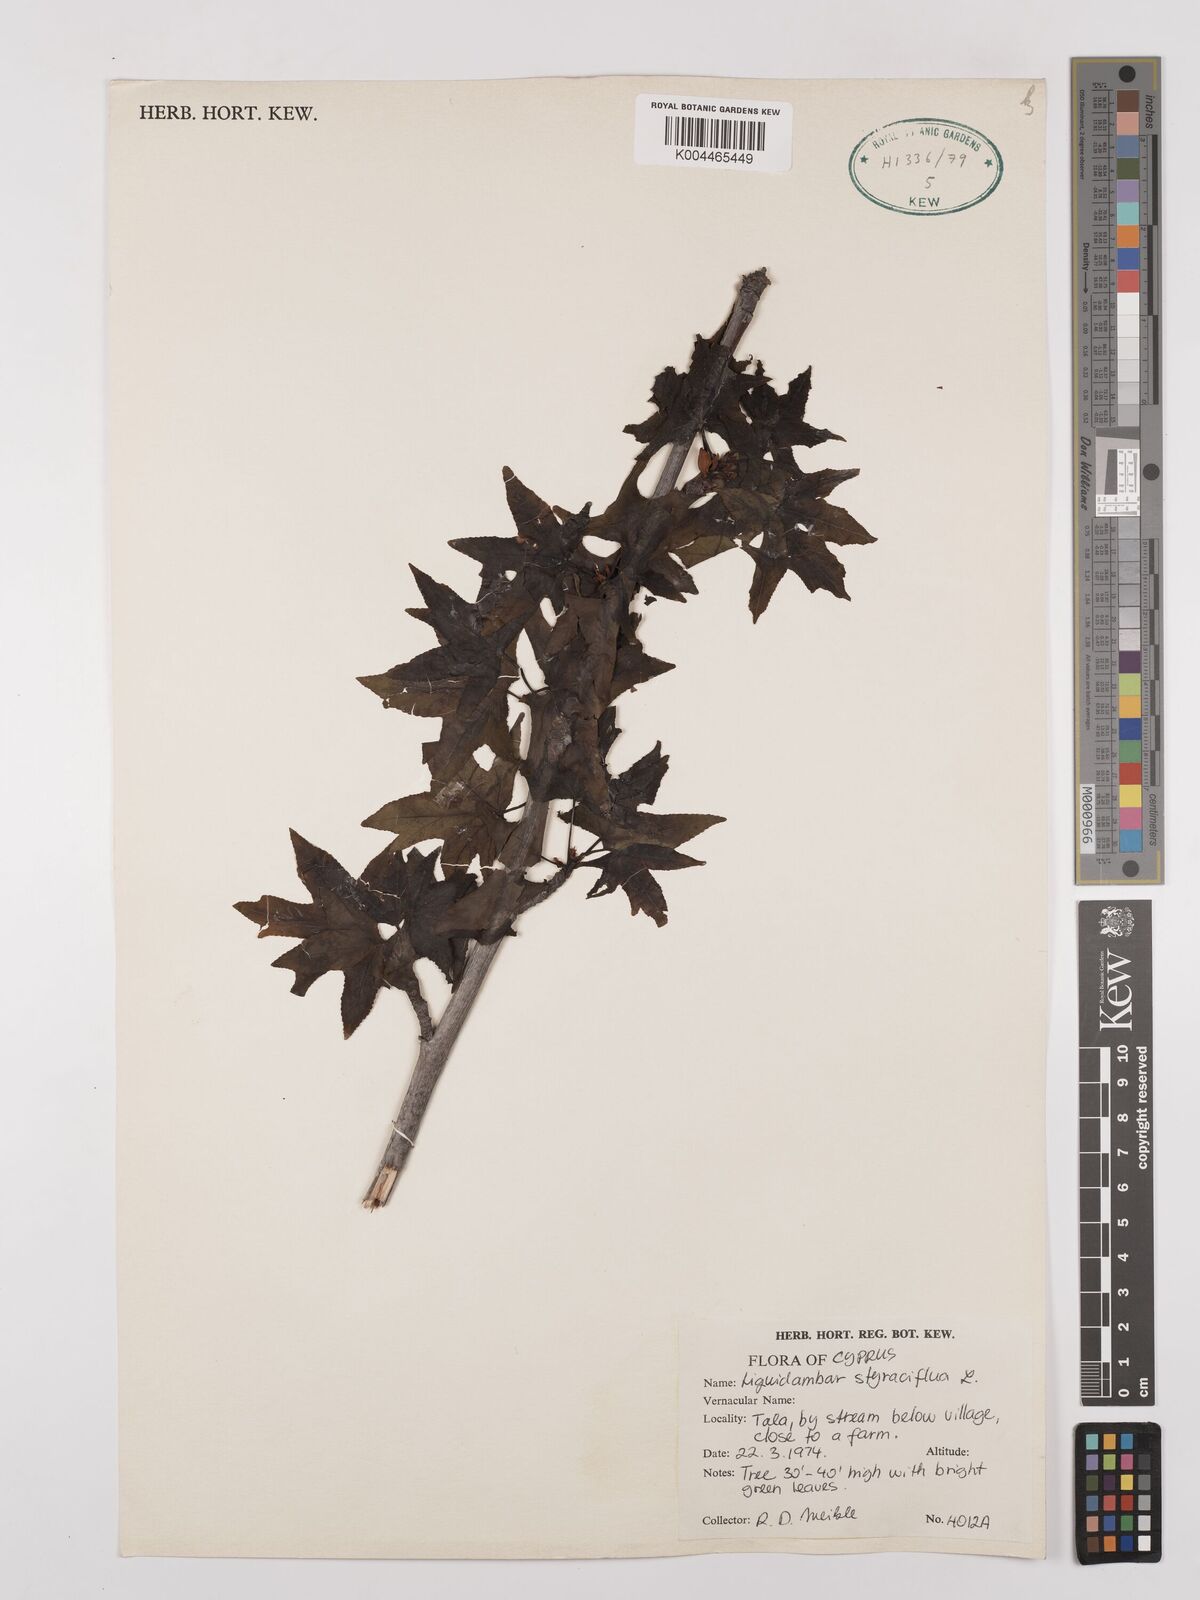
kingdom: Plantae
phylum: Tracheophyta
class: Magnoliopsida
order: Saxifragales
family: Altingiaceae
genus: Liquidambar
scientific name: Liquidambar styraciflua
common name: Sweet gum
